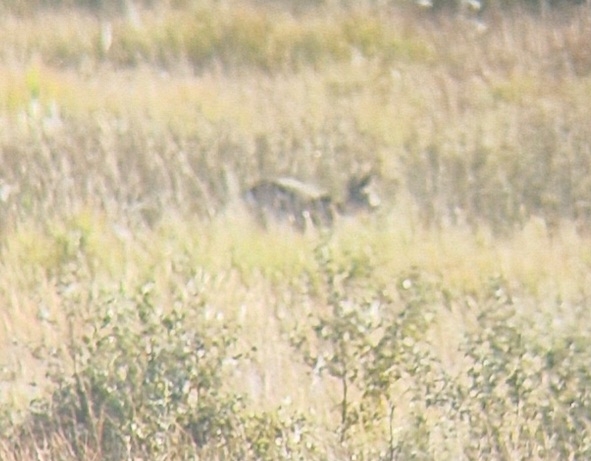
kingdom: Animalia
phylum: Chordata
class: Mammalia
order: Artiodactyla
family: Cervidae
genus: Capreolus
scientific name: Capreolus capreolus
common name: Rådyr
